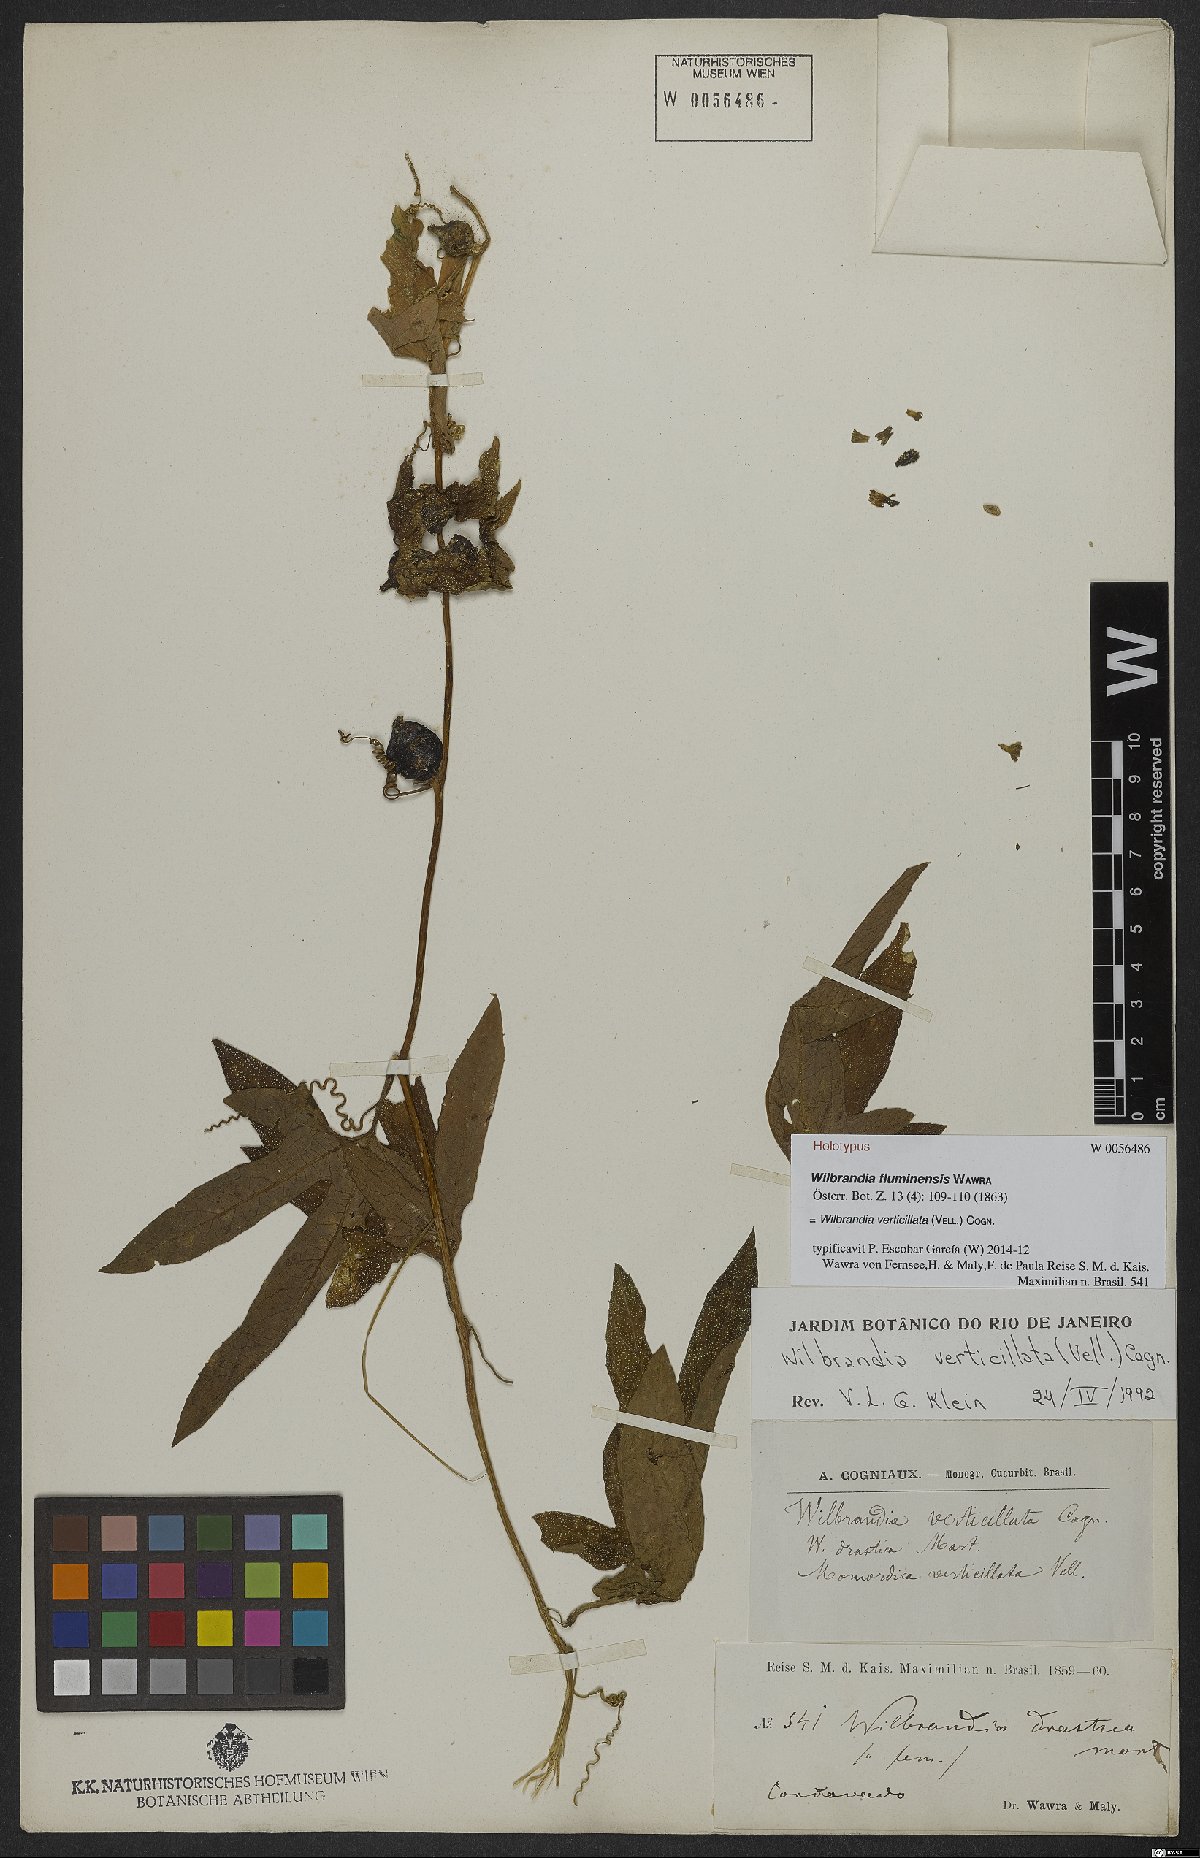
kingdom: Plantae
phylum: Tracheophyta
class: Magnoliopsida
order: Cucurbitales
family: Cucurbitaceae
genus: Wilbrandia
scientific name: Wilbrandia verticillata
